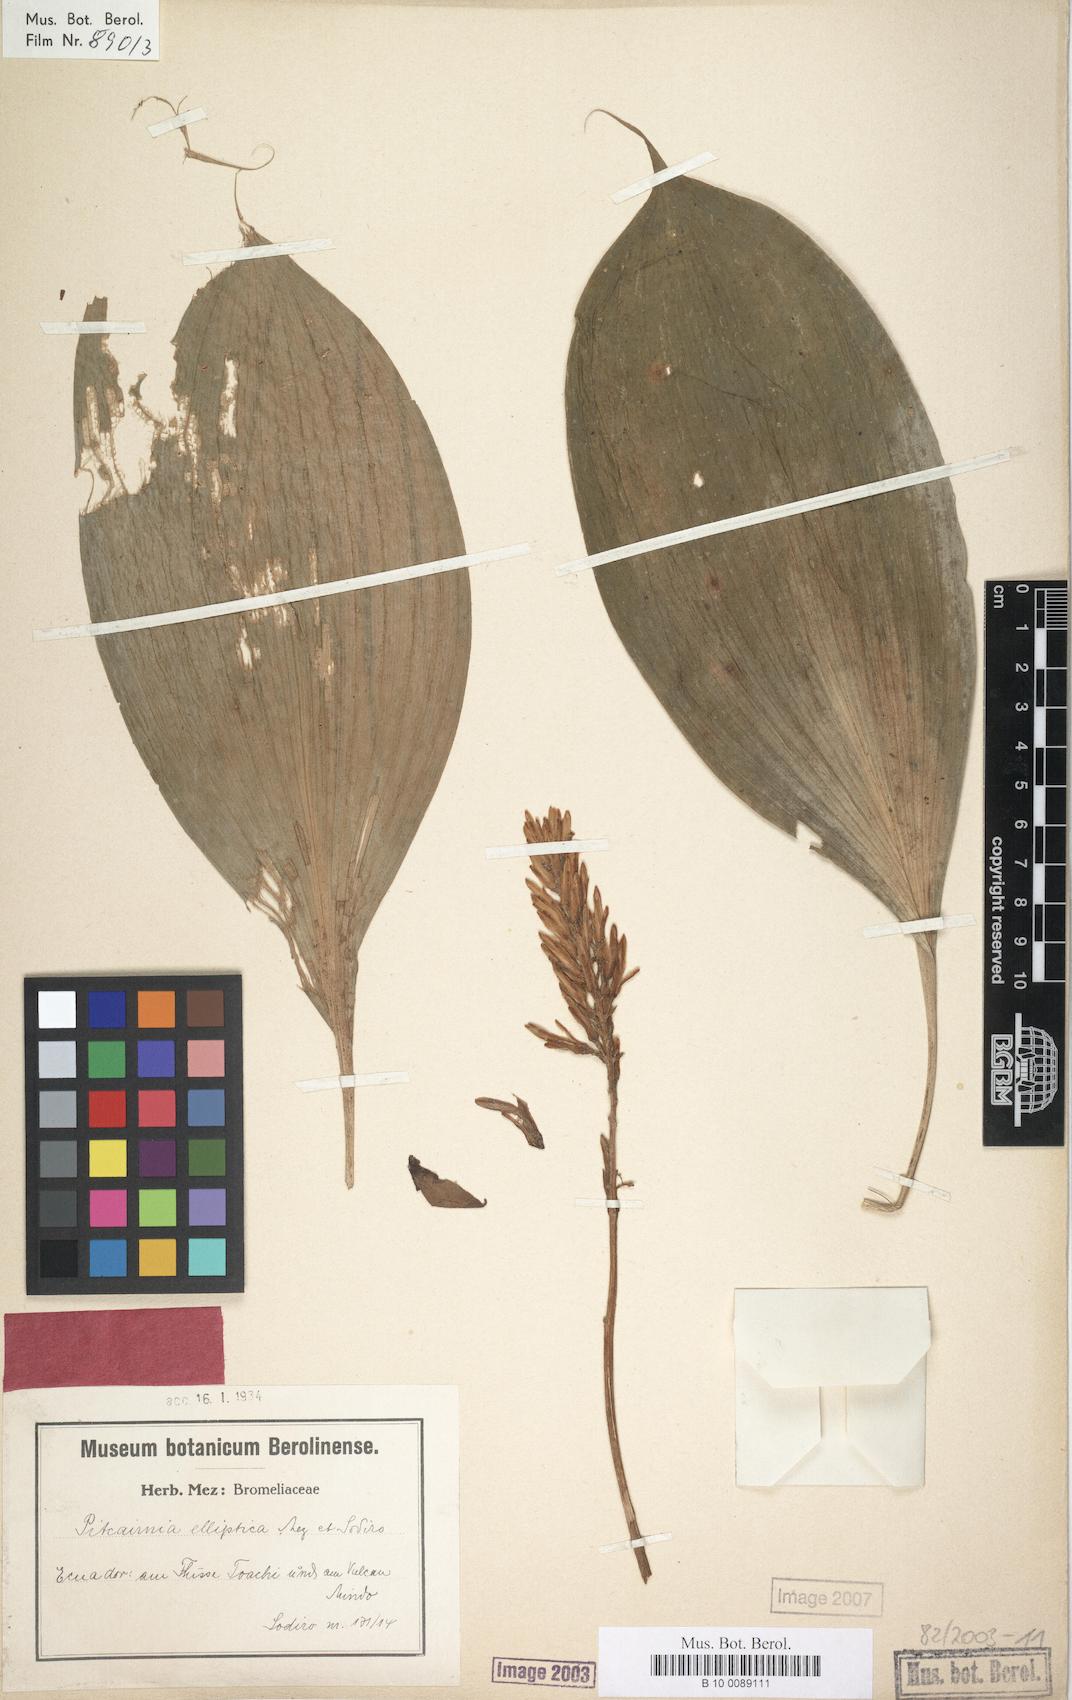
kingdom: Plantae
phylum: Tracheophyta
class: Liliopsida
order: Poales
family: Bromeliaceae
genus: Pitcairnia
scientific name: Pitcairnia elliptica
